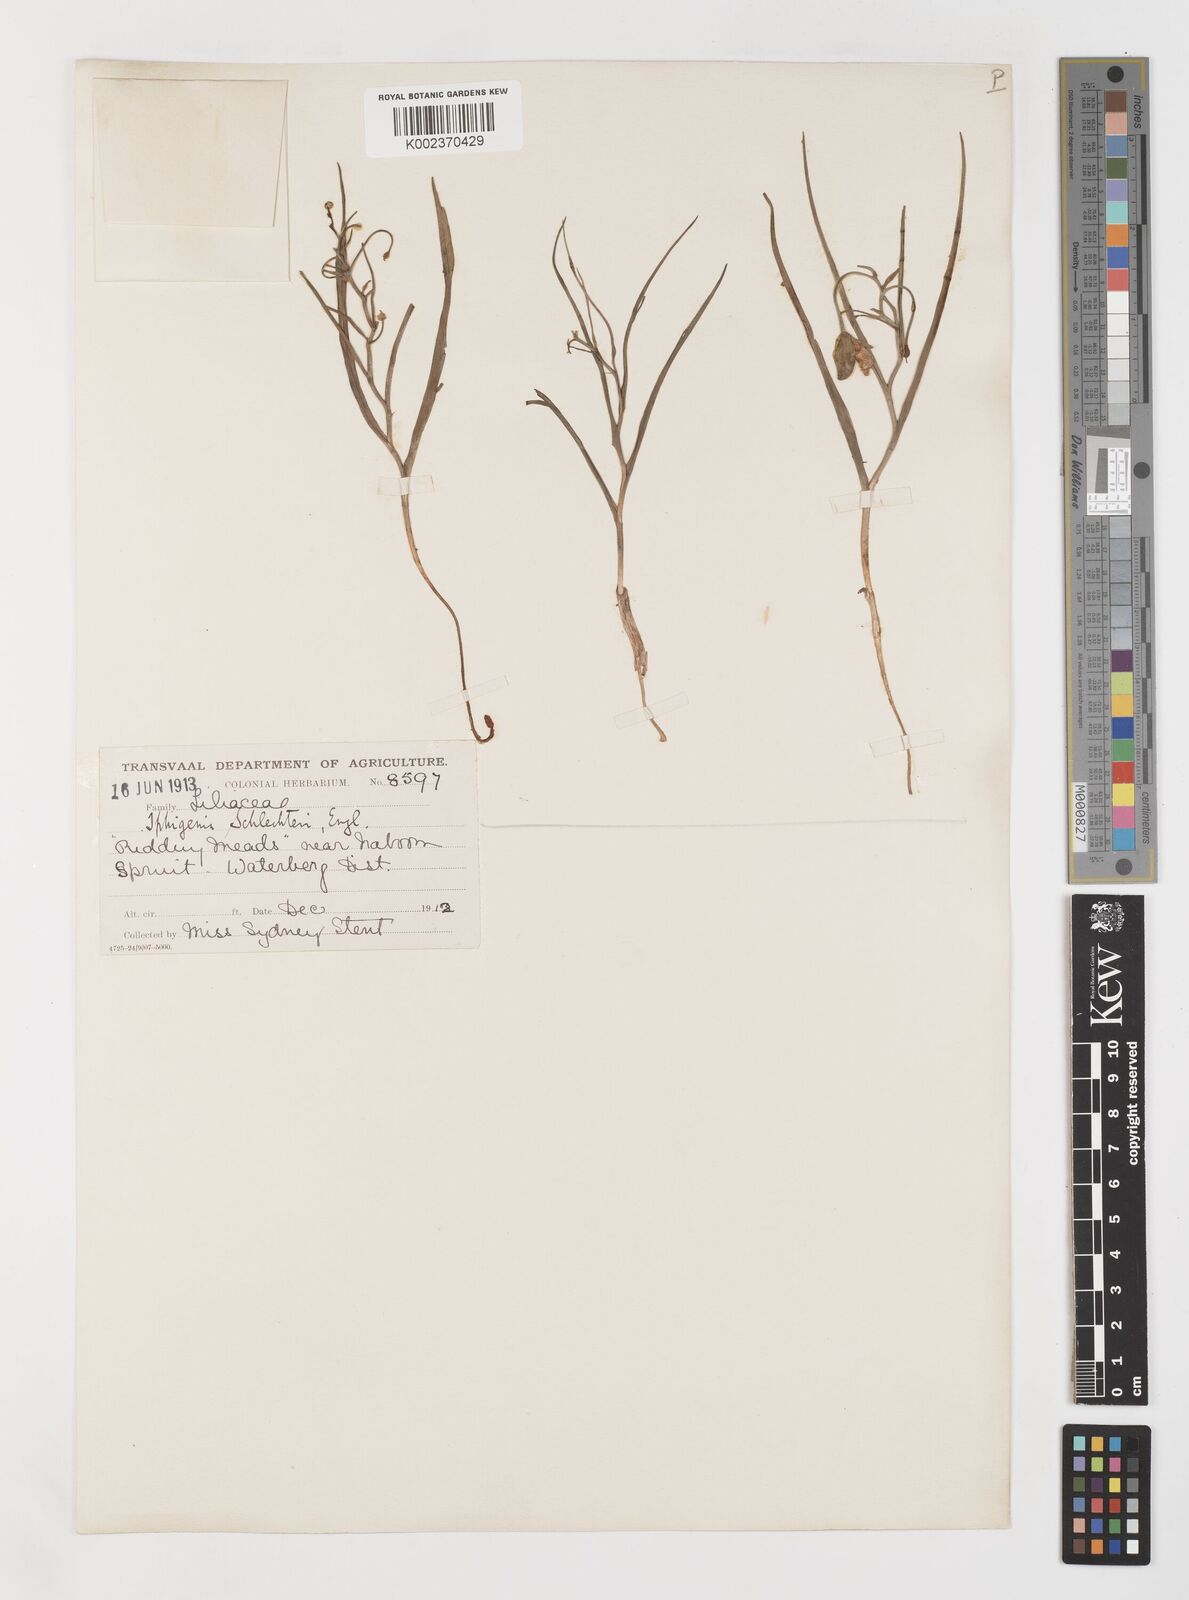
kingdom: Plantae
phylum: Tracheophyta
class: Liliopsida
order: Liliales
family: Colchicaceae
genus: Camptorrhiza
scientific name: Camptorrhiza strumosa
